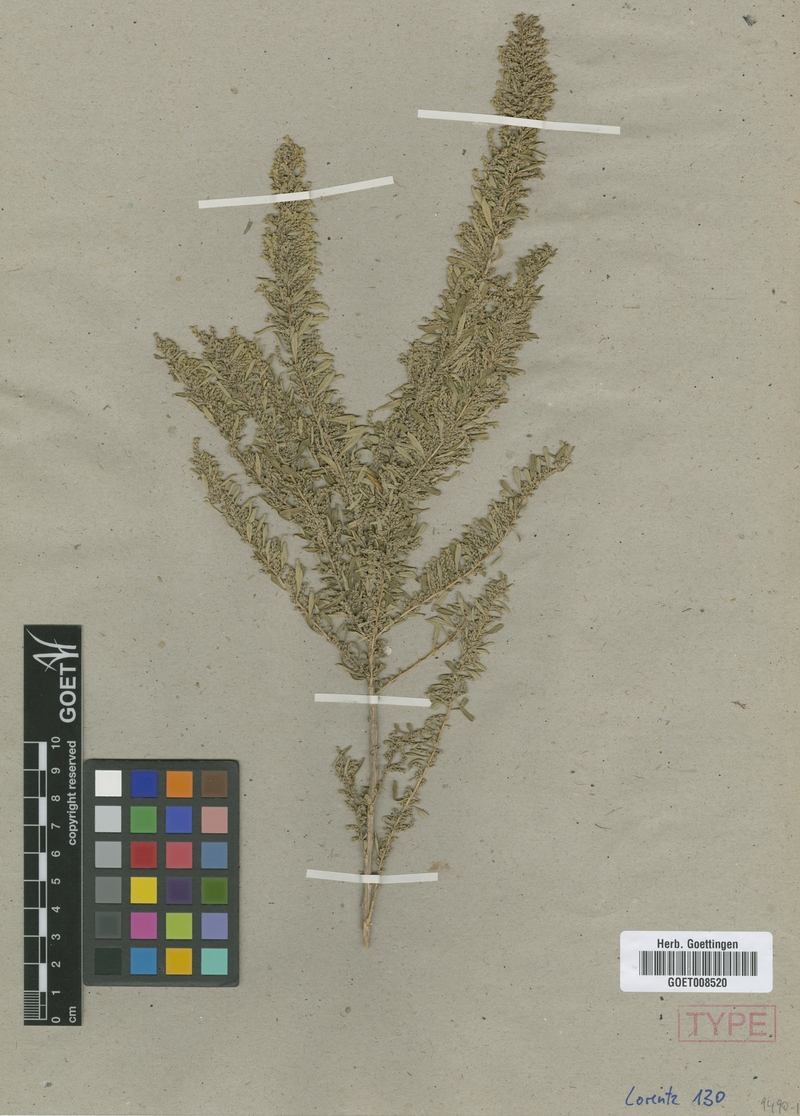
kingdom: Plantae
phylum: Tracheophyta
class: Magnoliopsida
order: Lamiales
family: Verbenaceae
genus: Aloysia
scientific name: Aloysia polystachya
